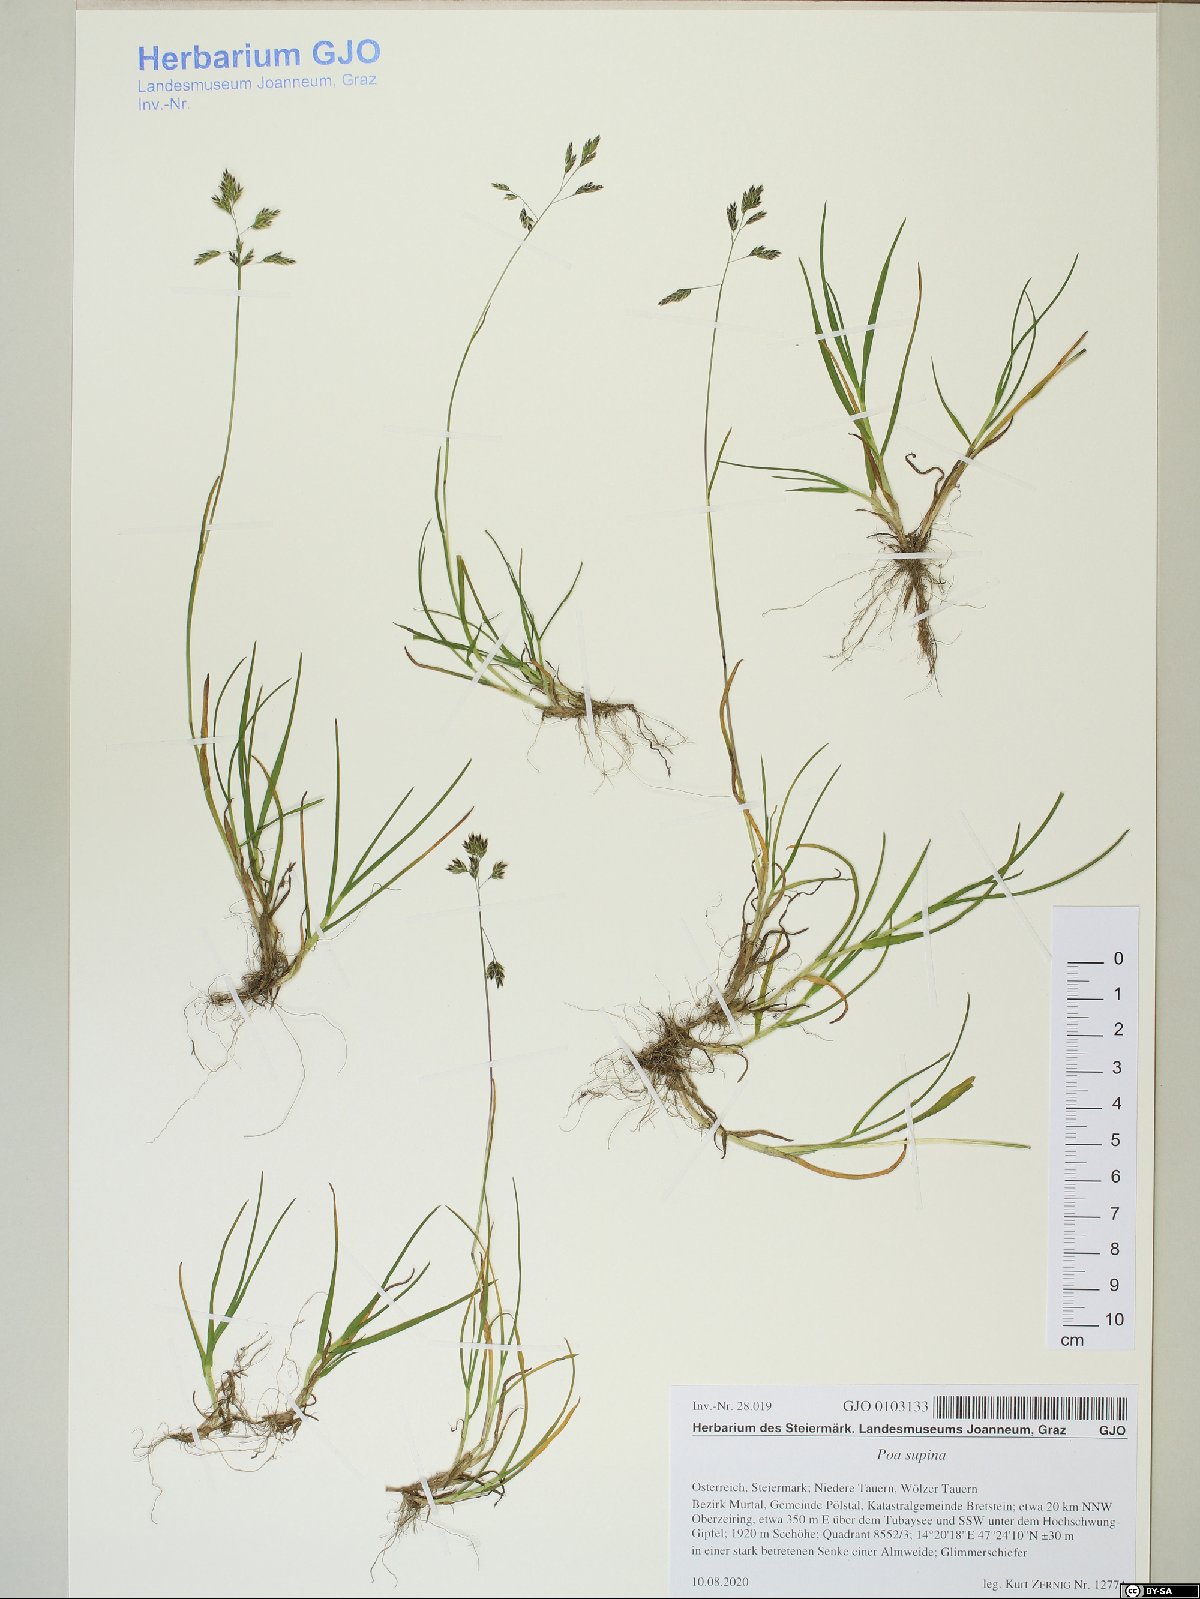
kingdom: Plantae
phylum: Tracheophyta
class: Liliopsida
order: Poales
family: Poaceae
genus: Poa
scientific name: Poa supina
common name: Supina bluegrass
